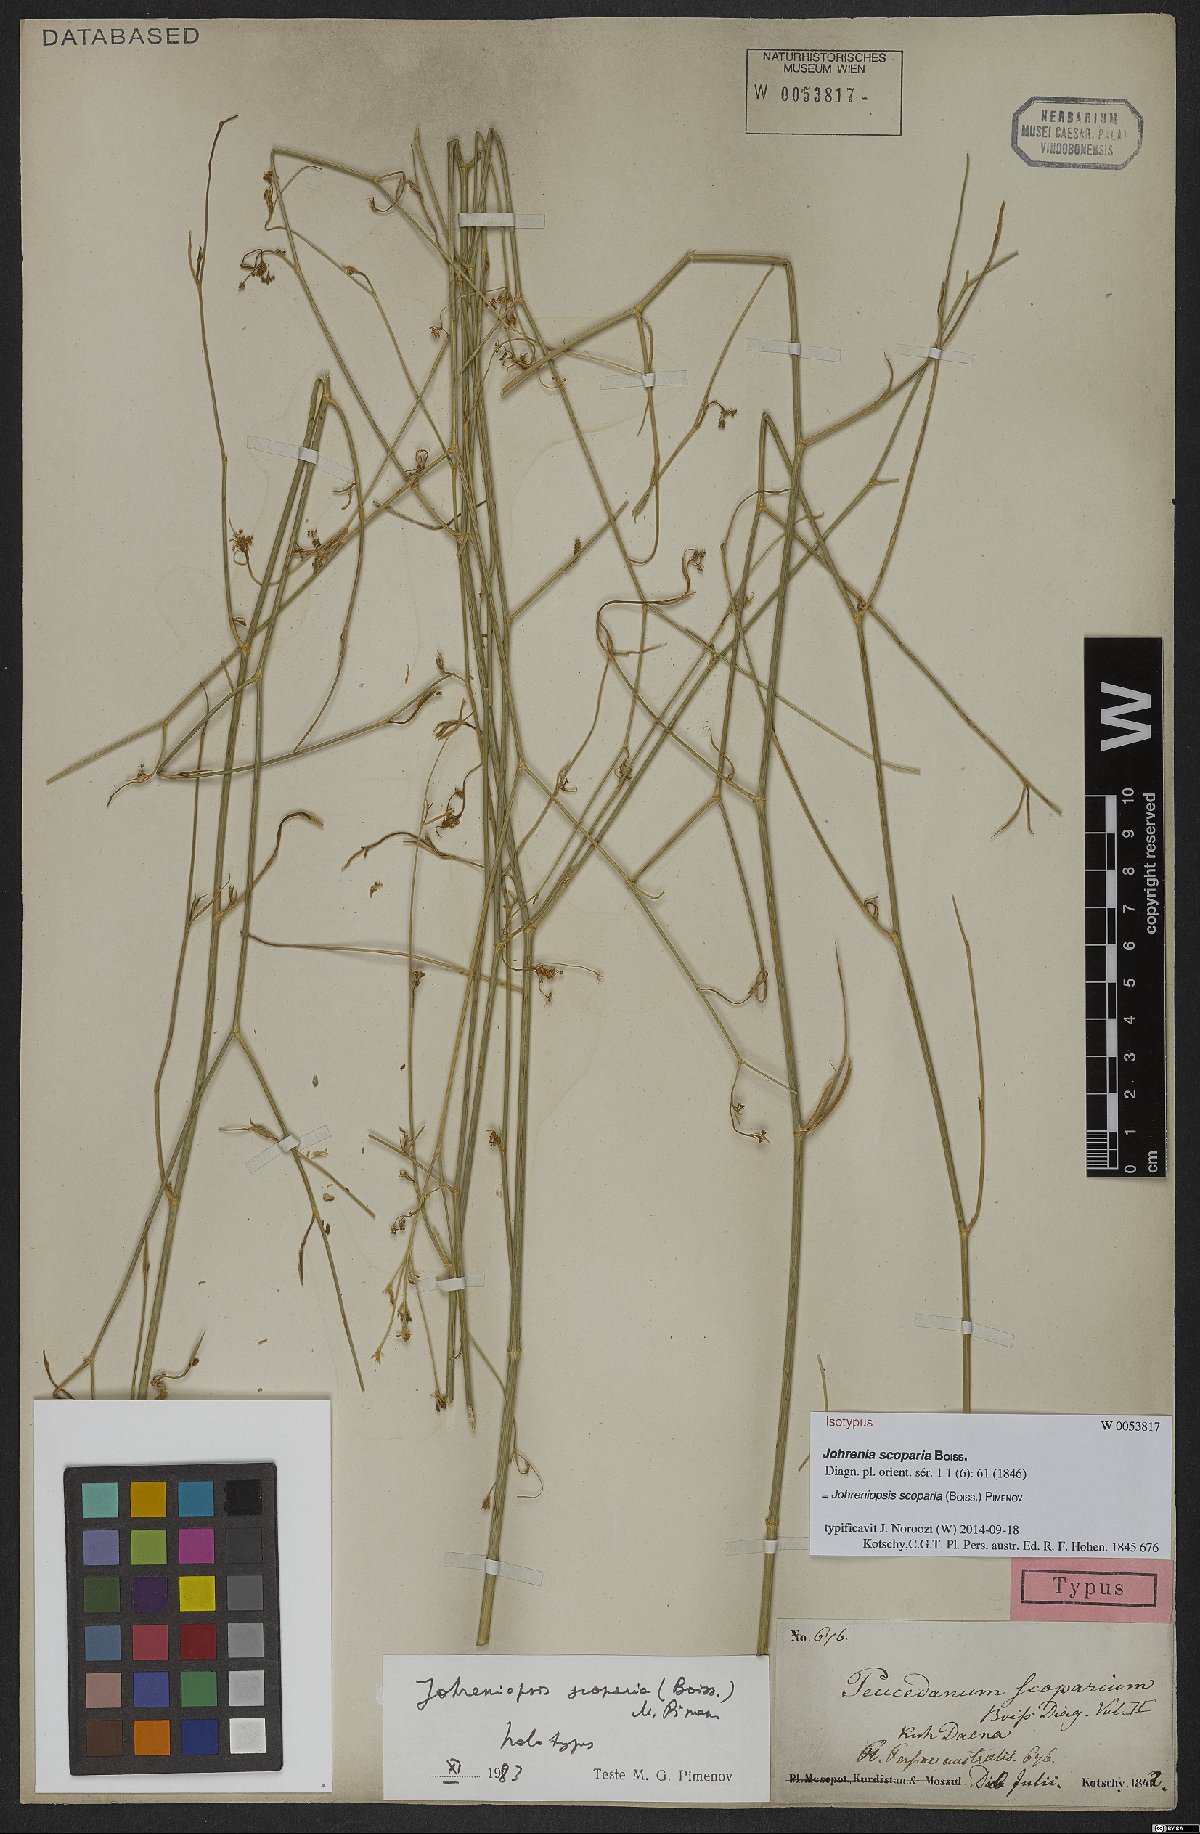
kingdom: Plantae
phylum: Tracheophyta
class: Magnoliopsida
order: Apiales
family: Apiaceae
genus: Dichoropetalum
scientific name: Dichoropetalum scoparium
